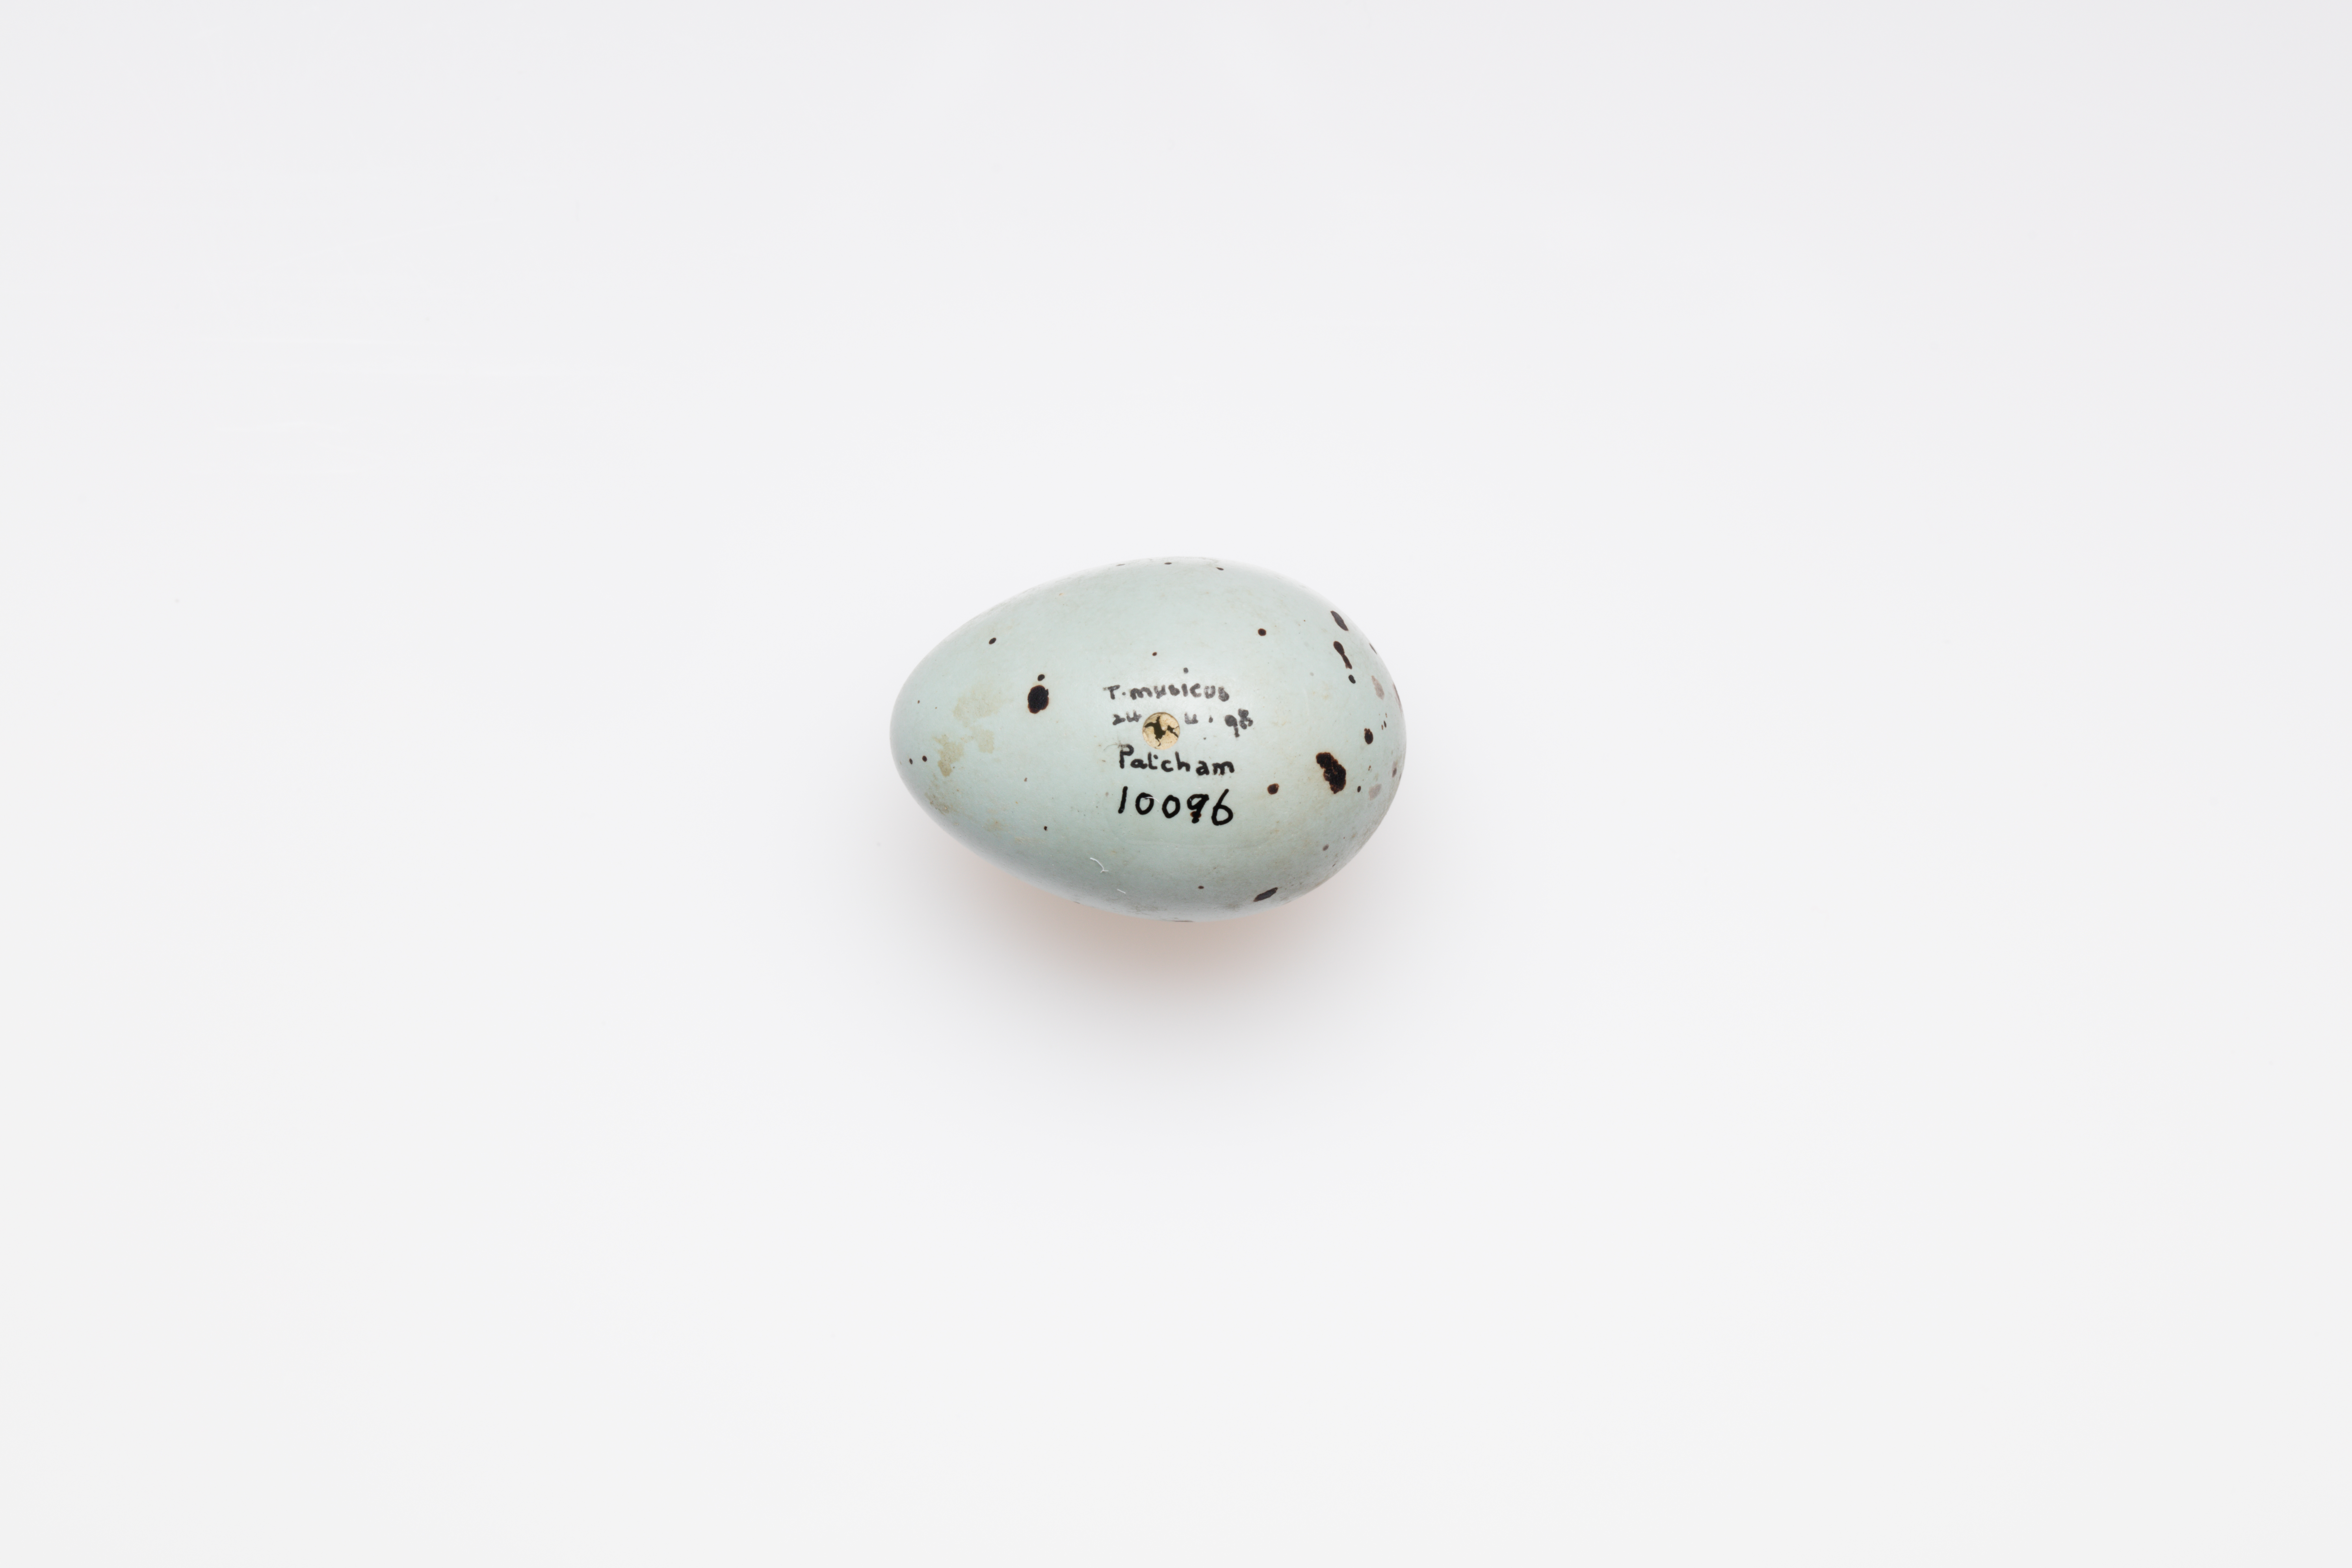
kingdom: Animalia
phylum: Chordata
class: Aves
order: Passeriformes
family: Turdidae
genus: Turdus
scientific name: Turdus philomelos
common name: Song thrush
